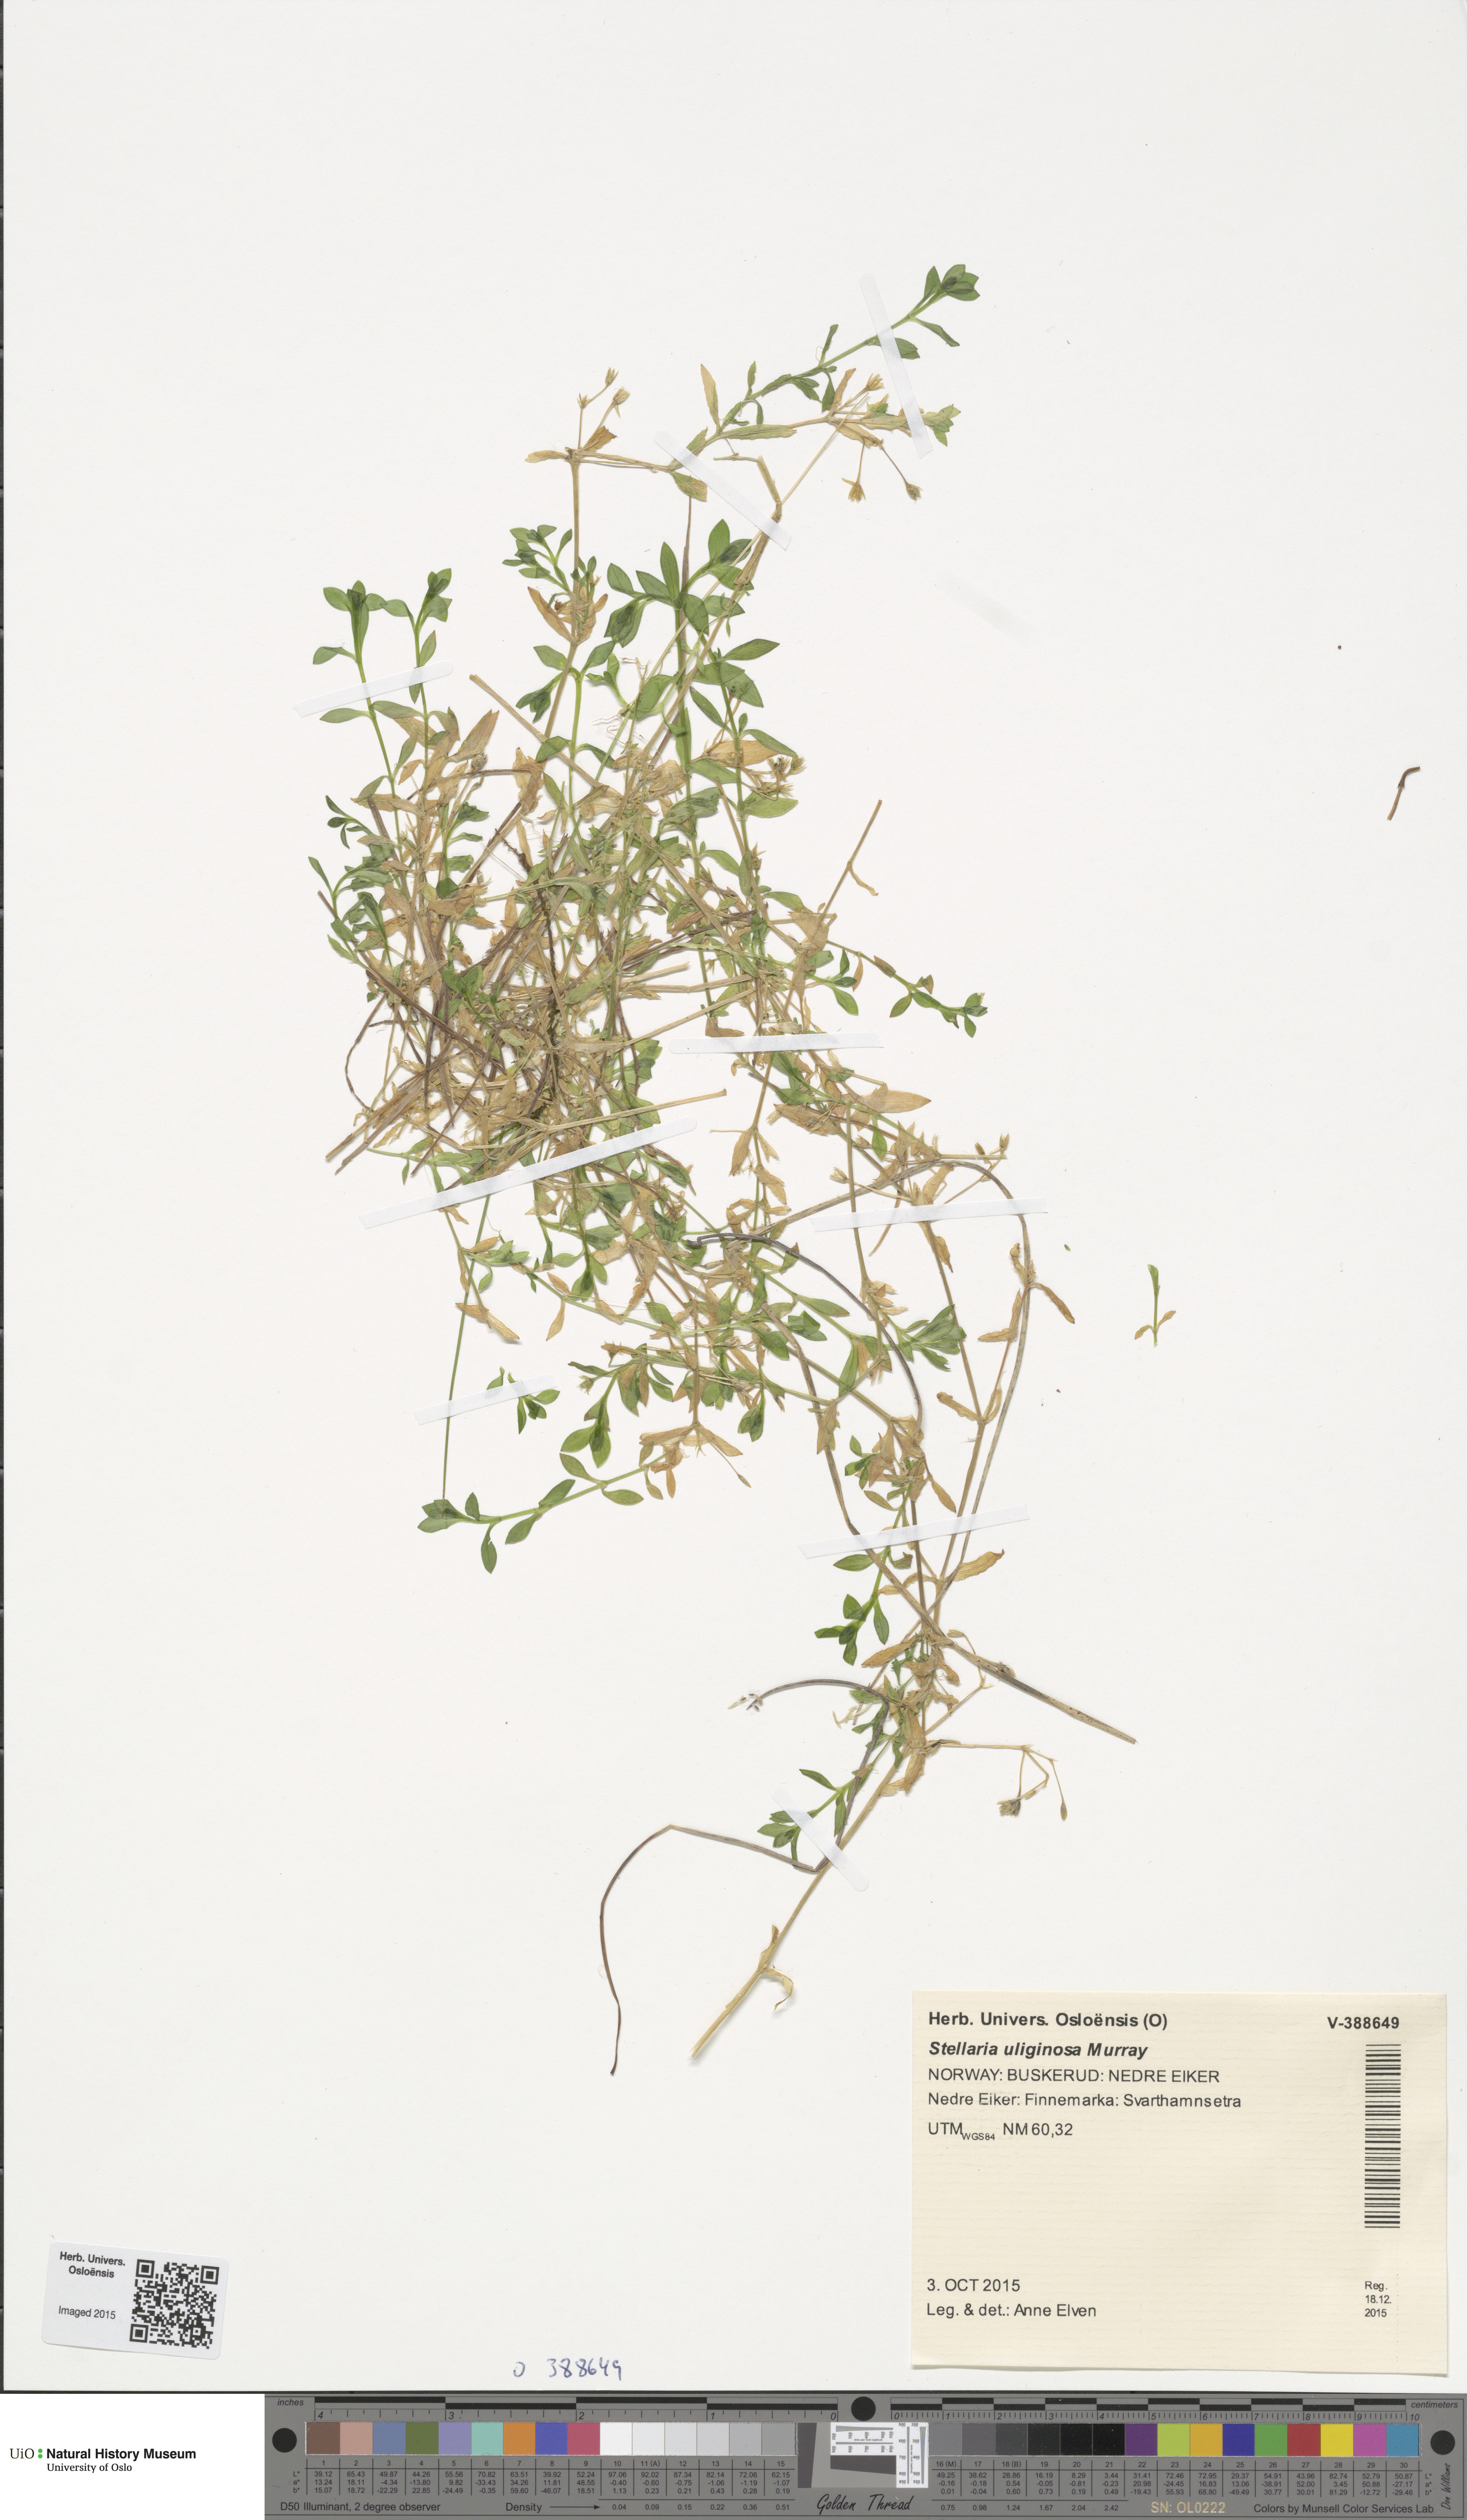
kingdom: Plantae
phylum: Tracheophyta
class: Magnoliopsida
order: Caryophyllales
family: Caryophyllaceae
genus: Stellaria
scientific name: Stellaria alsine
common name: Bog stitchwort
